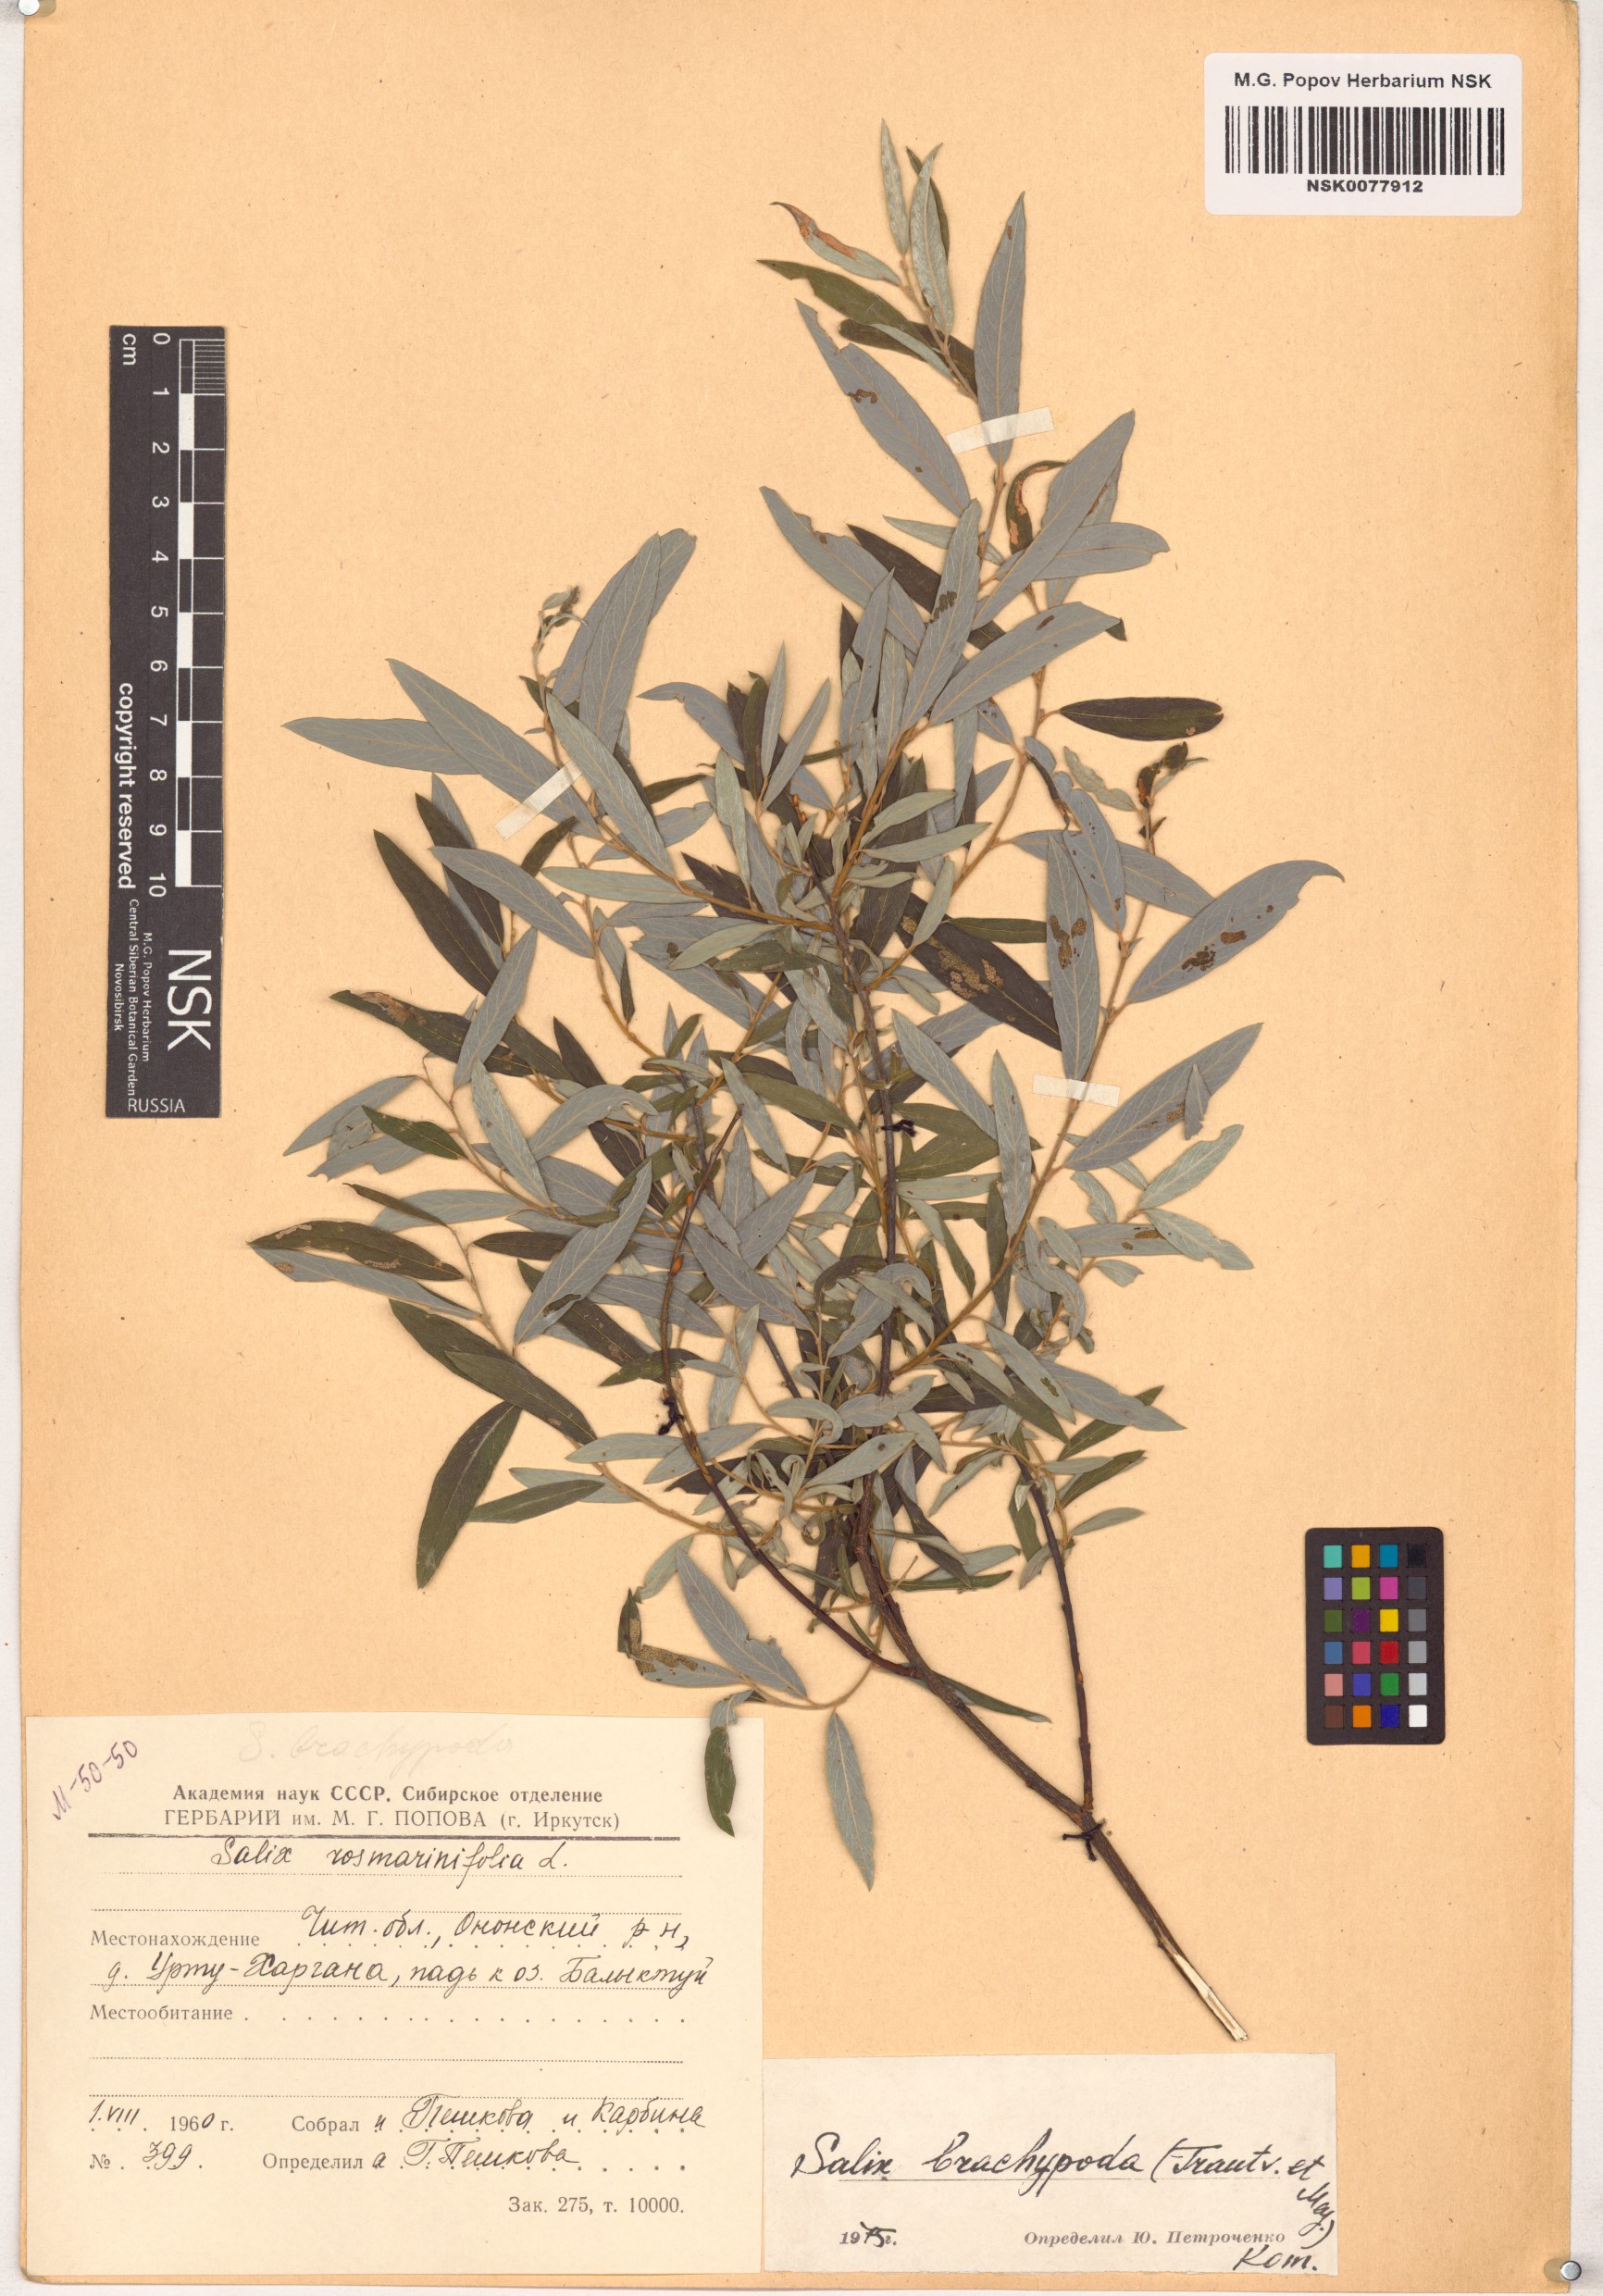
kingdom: Plantae
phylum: Tracheophyta
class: Magnoliopsida
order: Malpighiales
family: Salicaceae
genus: Salix
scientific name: Salix brachypoda
